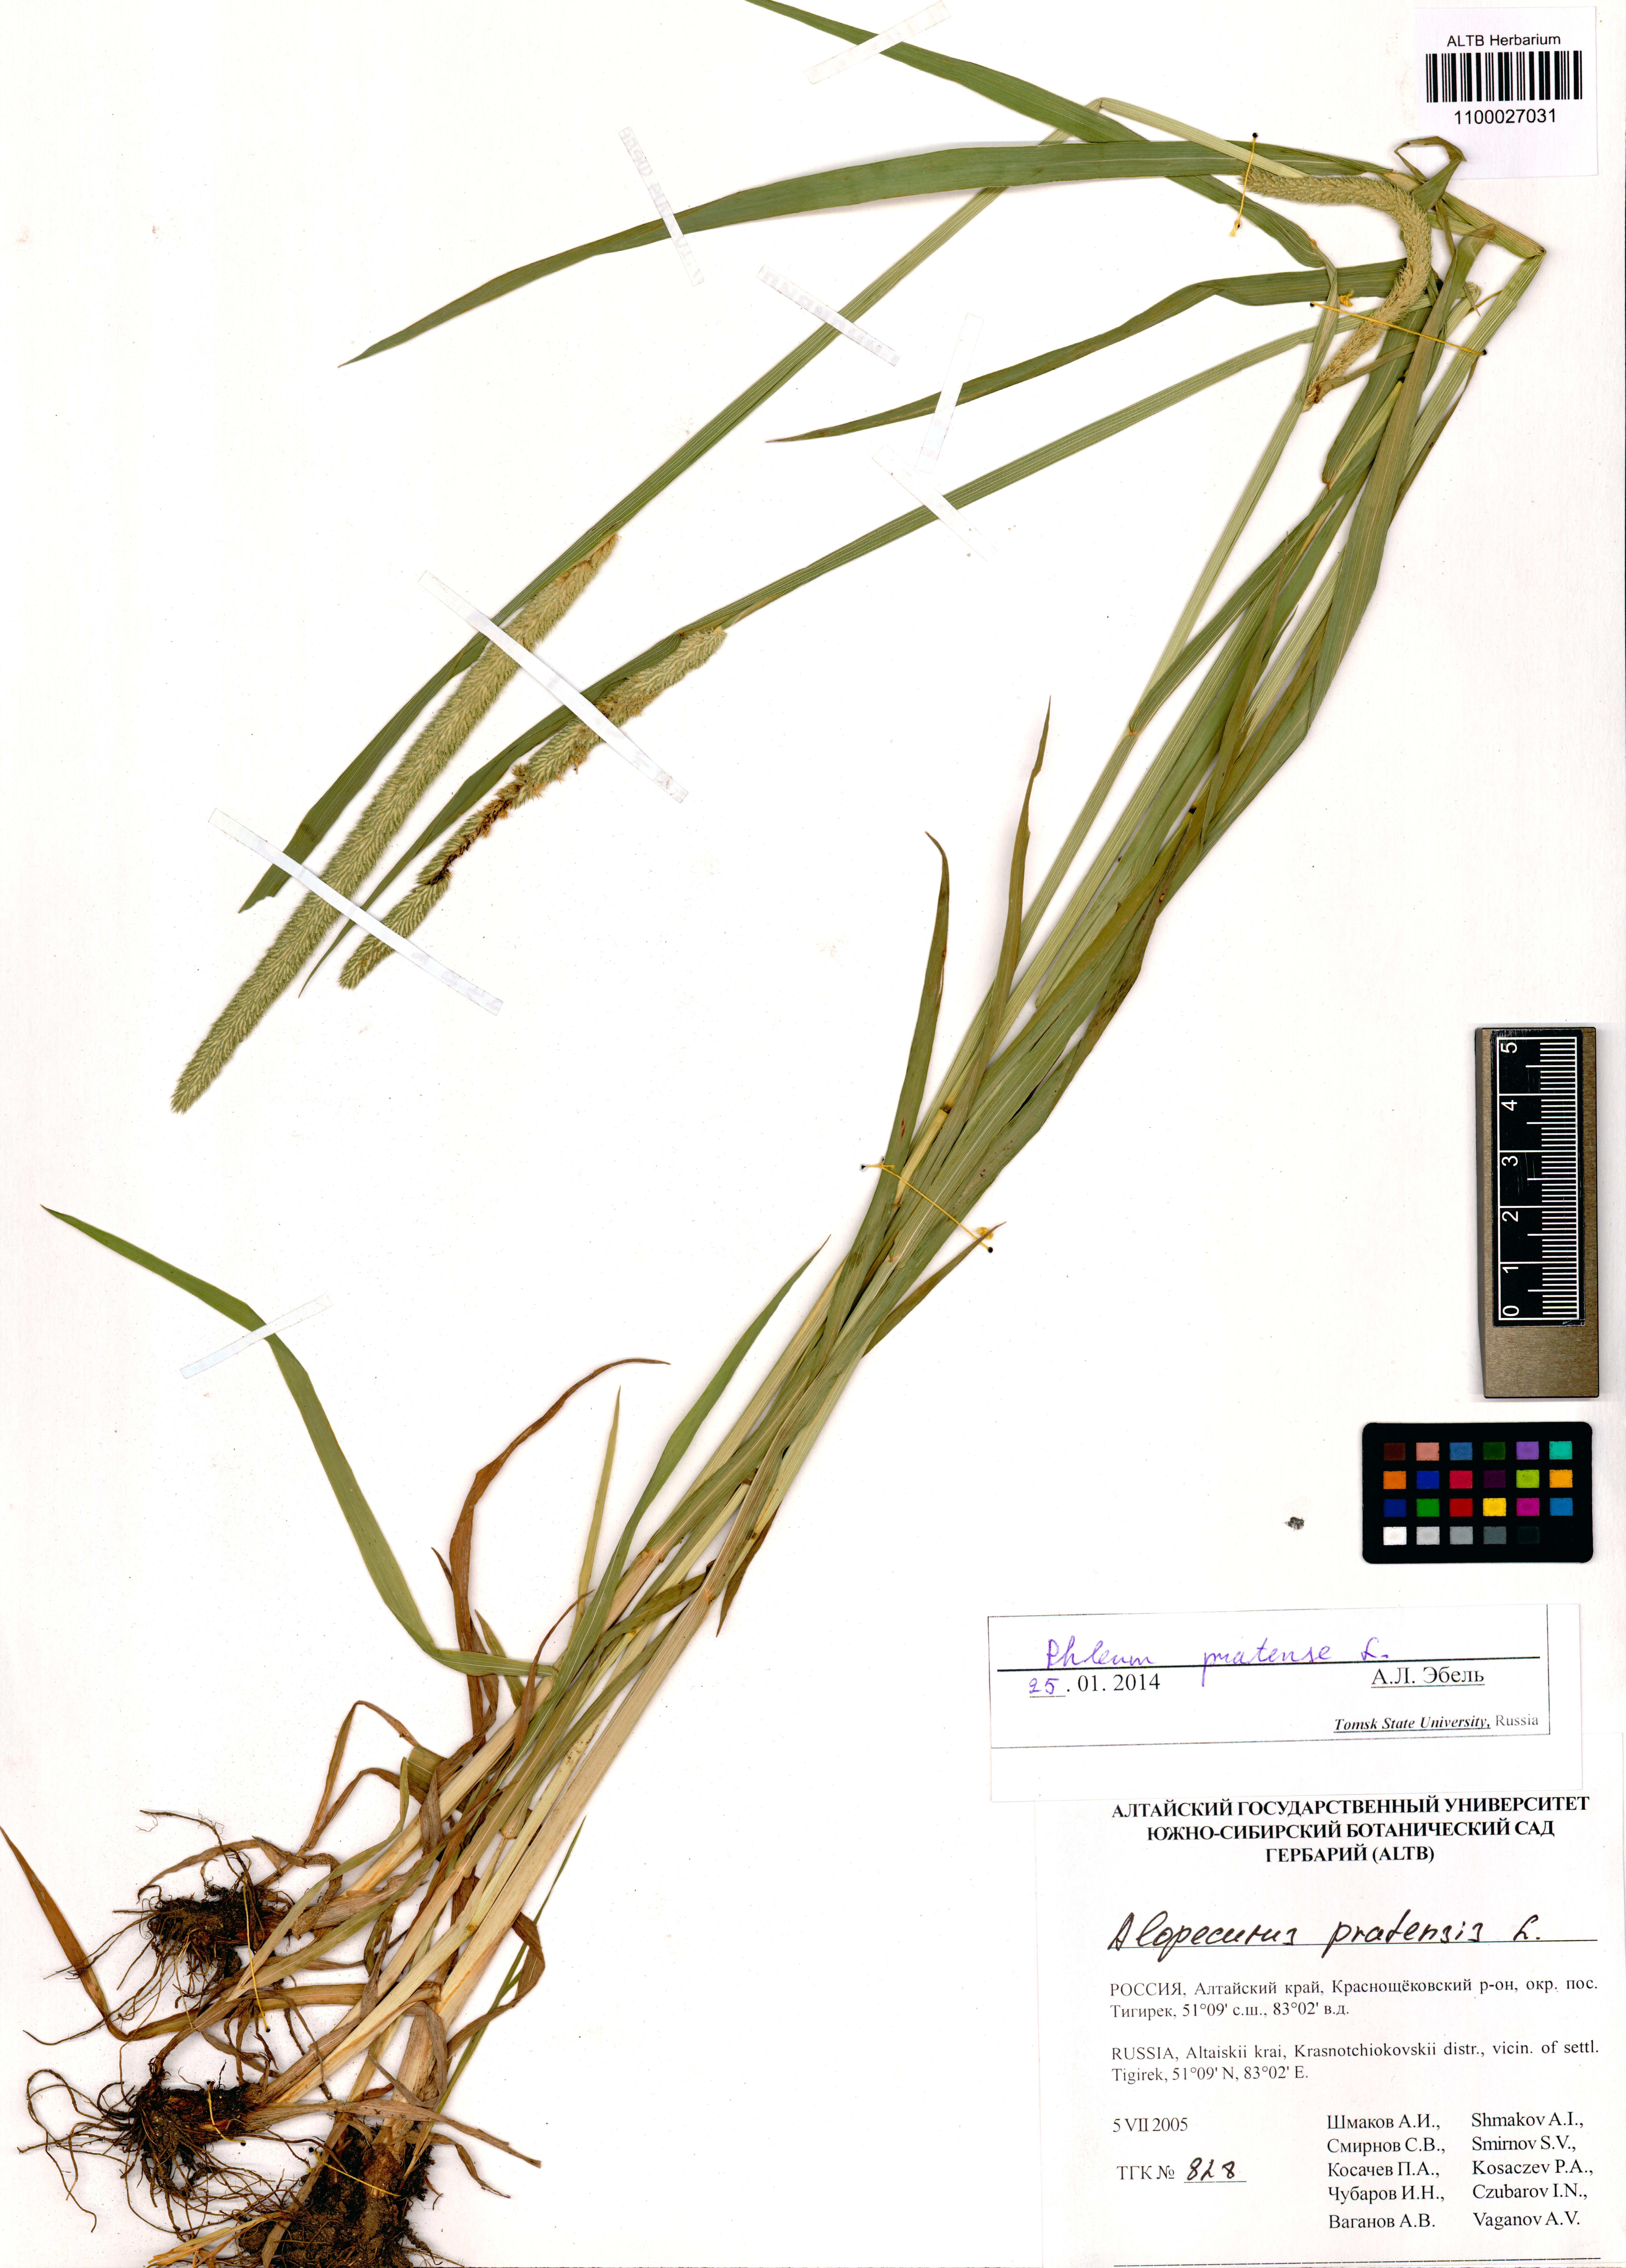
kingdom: Plantae
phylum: Tracheophyta
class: Liliopsida
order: Poales
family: Poaceae
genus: Phleum
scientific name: Phleum pratense
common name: Timothy grass
